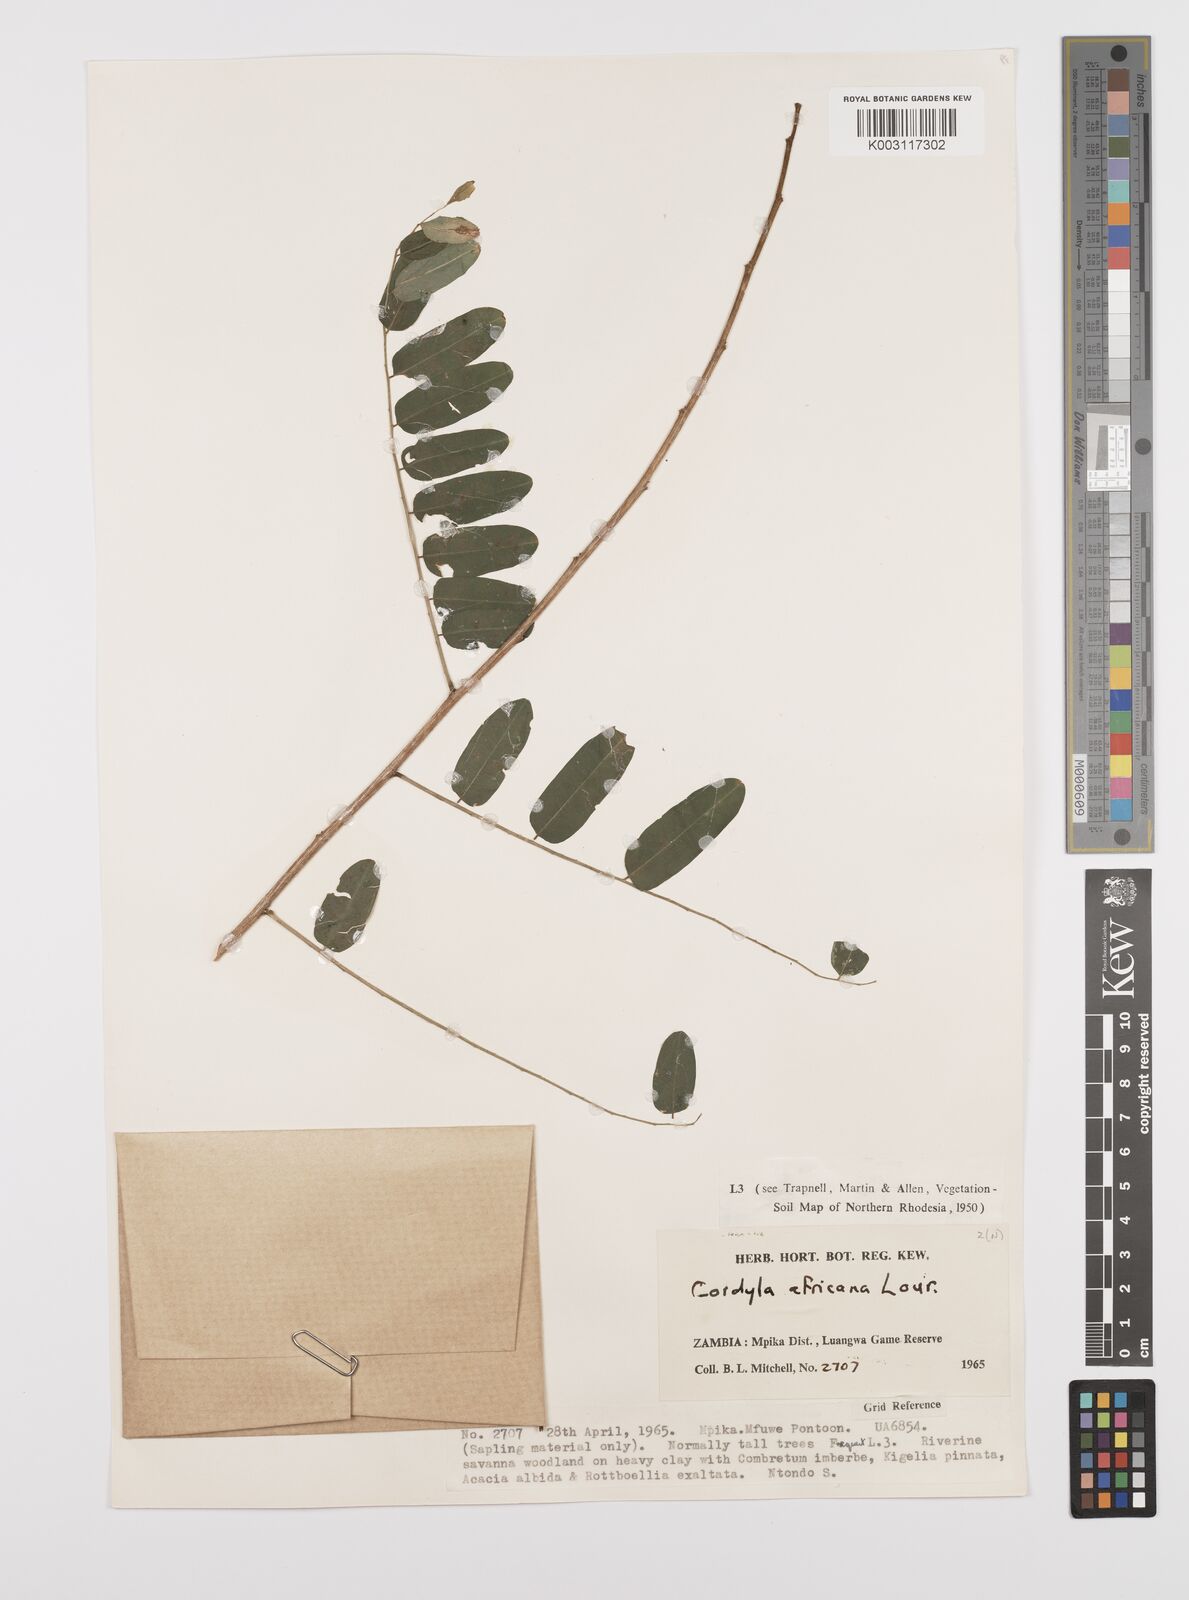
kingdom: Plantae
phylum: Tracheophyta
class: Magnoliopsida
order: Fabales
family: Fabaceae
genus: Cordyla
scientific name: Cordyla africana
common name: Wild mango
